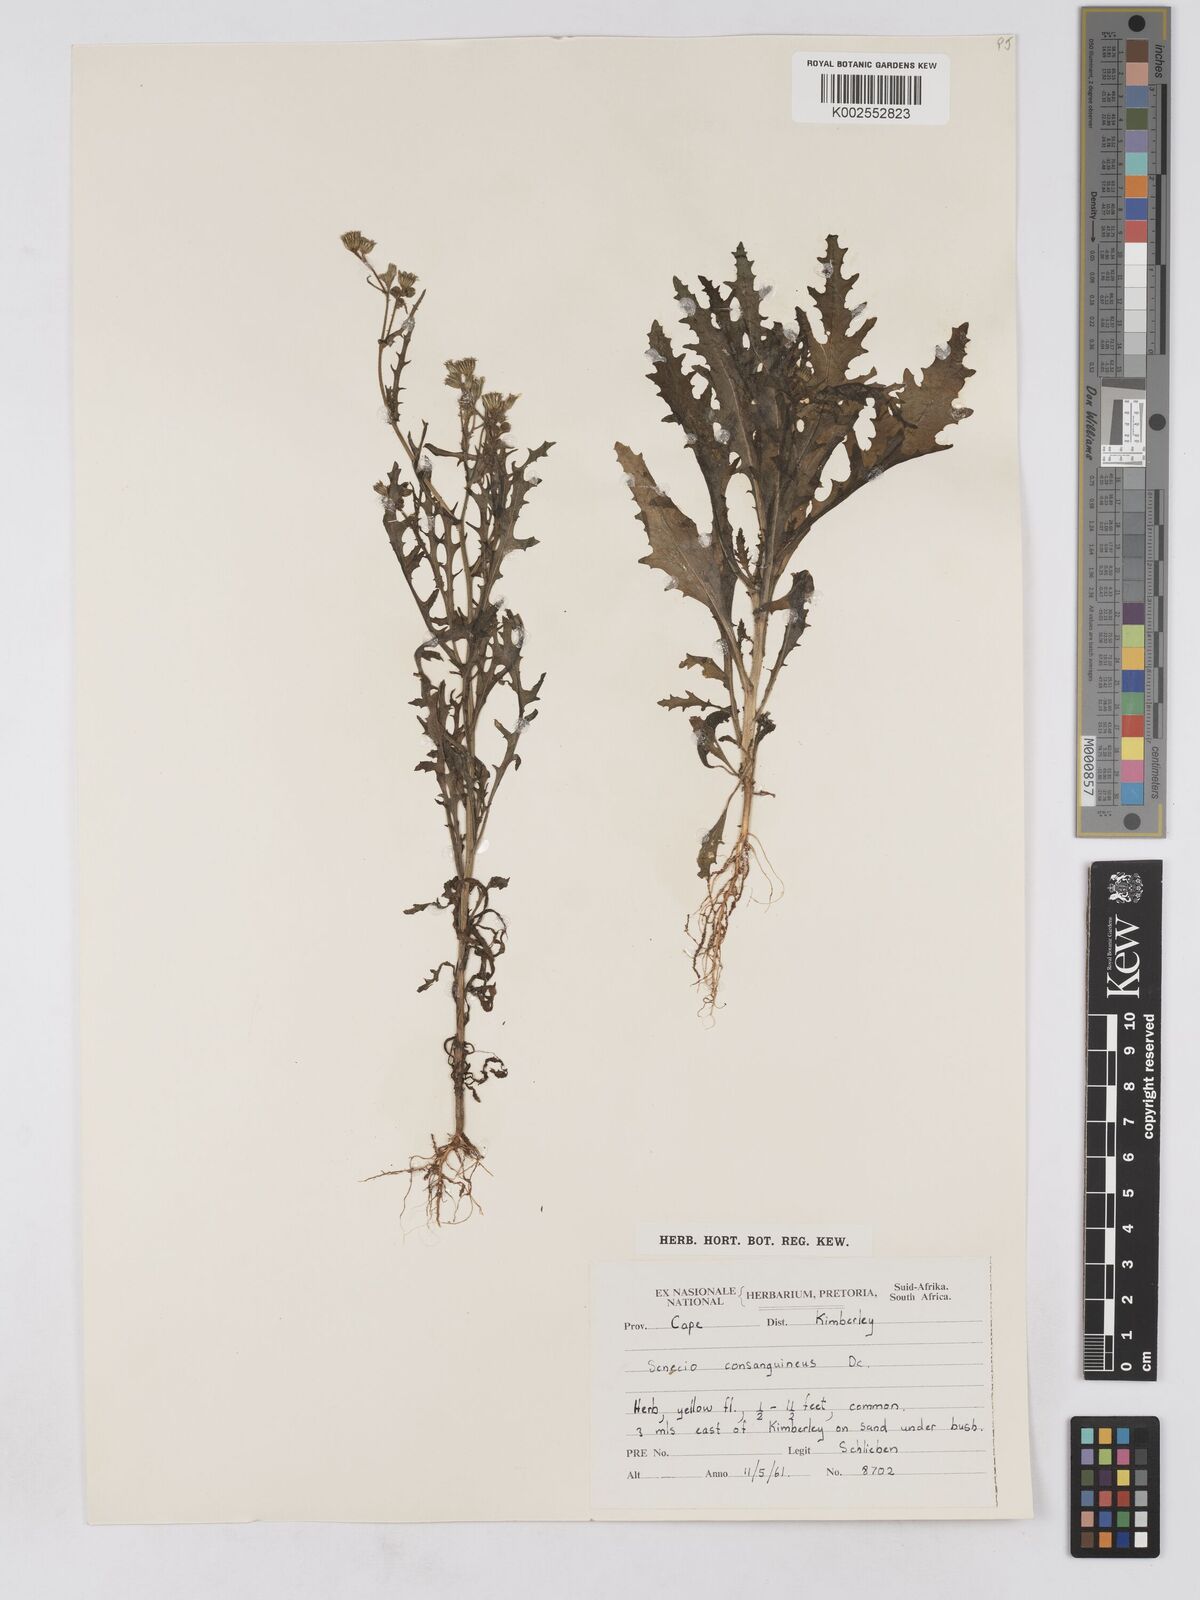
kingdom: Plantae
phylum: Tracheophyta
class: Magnoliopsida
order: Asterales
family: Asteraceae
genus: Senecio
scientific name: Senecio consanguineus
